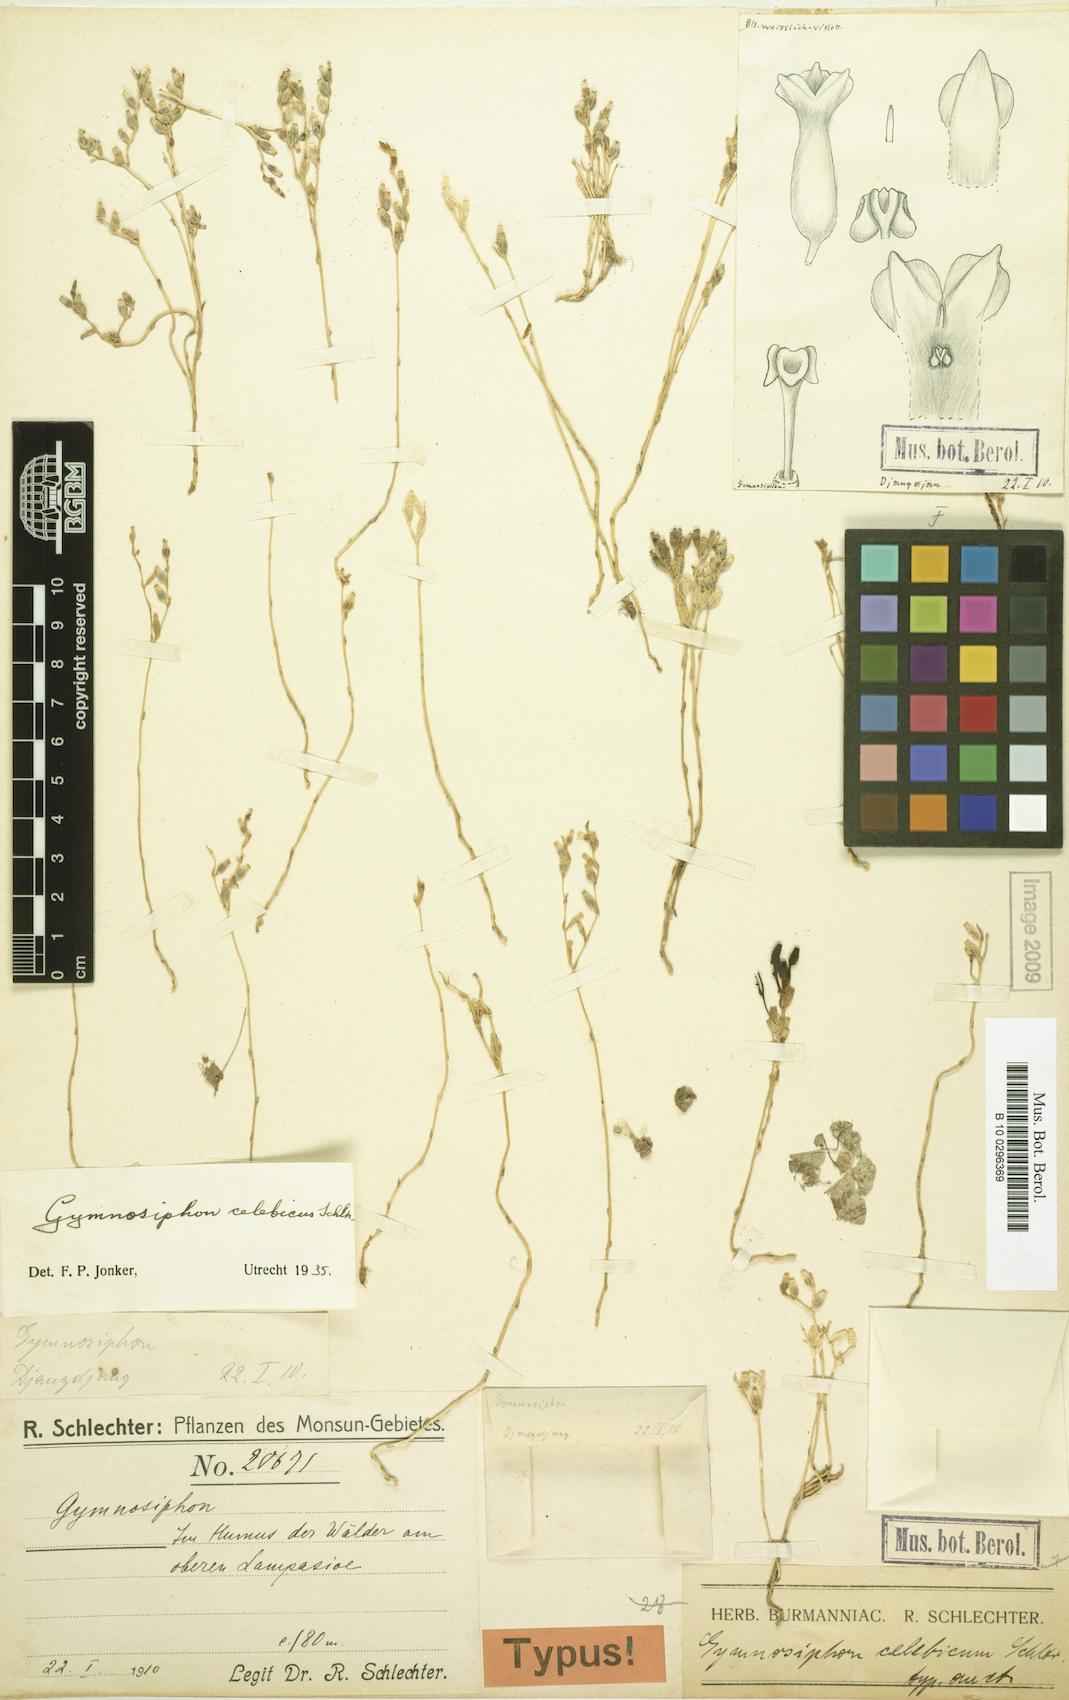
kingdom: Plantae
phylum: Tracheophyta
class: Liliopsida
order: Dioscoreales
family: Burmanniaceae
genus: Gymnosiphon
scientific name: Gymnosiphon papuanus
